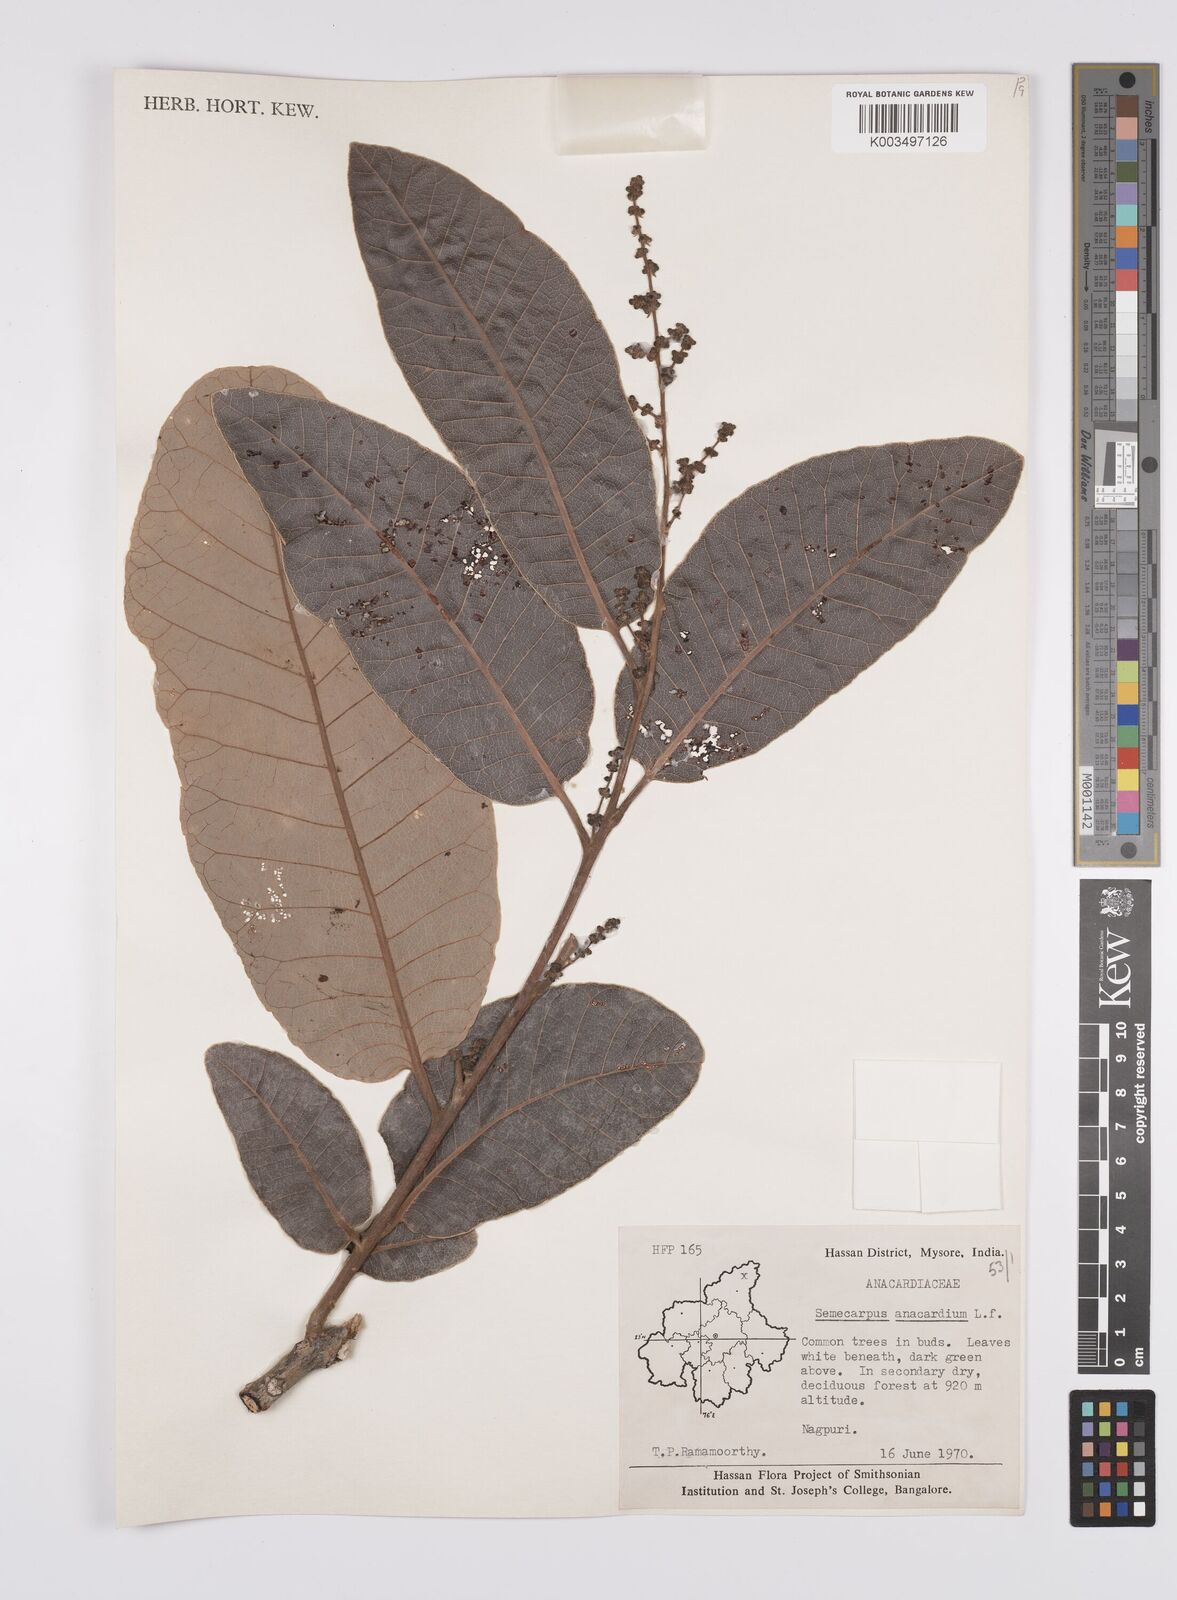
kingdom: Plantae
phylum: Tracheophyta
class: Magnoliopsida
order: Sapindales
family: Anacardiaceae
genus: Semecarpus
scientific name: Semecarpus anacardium
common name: Marking nut-tree
